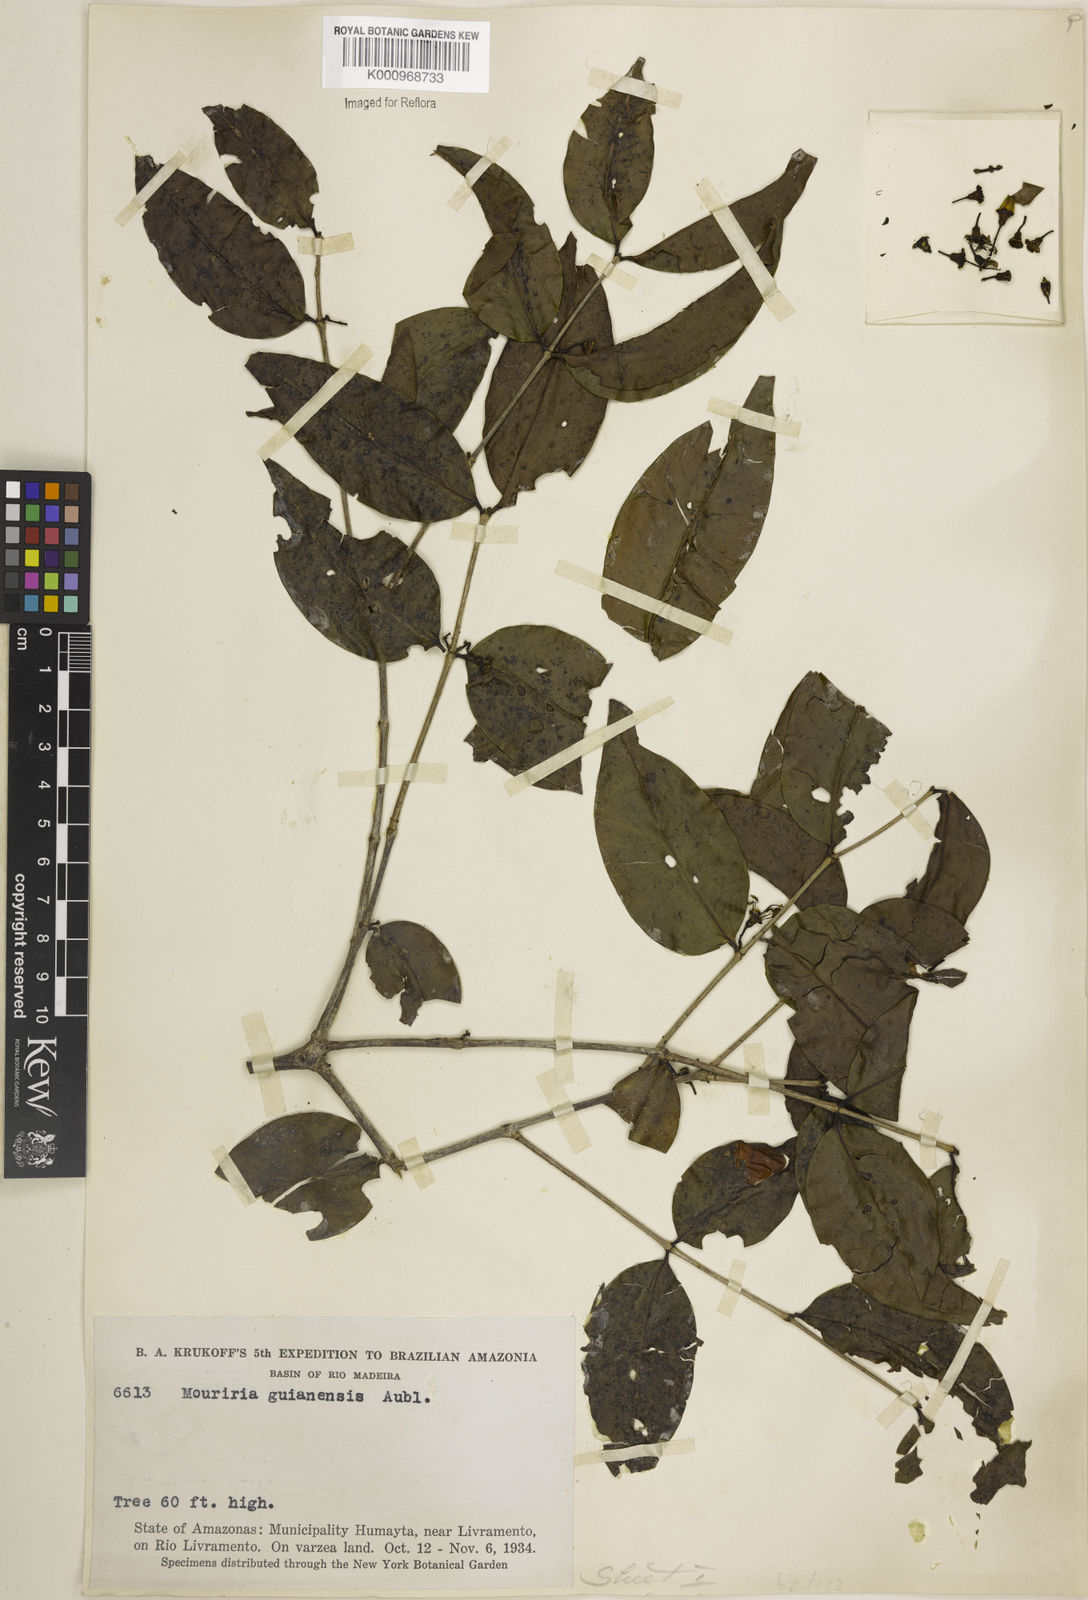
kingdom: Plantae
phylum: Tracheophyta
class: Magnoliopsida
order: Myrtales
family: Melastomataceae
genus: Mouriri
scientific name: Mouriri guianensis
